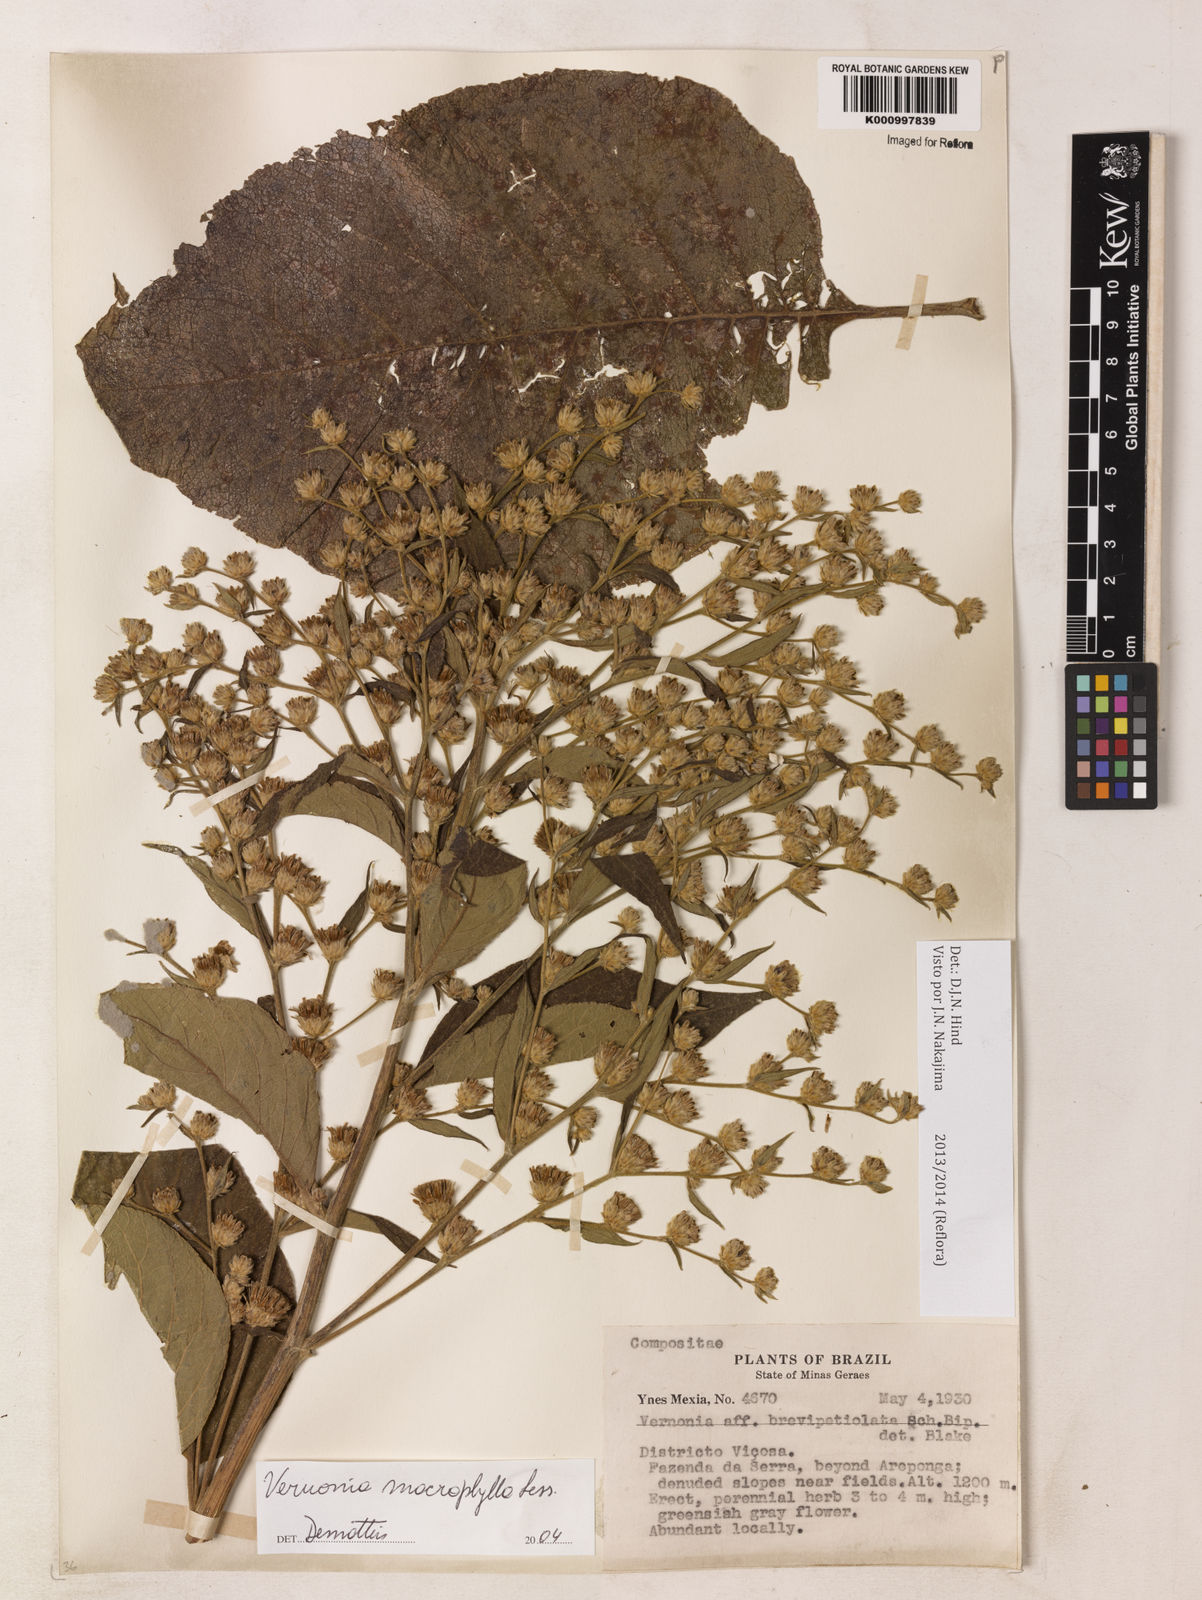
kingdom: Plantae
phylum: Tracheophyta
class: Magnoliopsida
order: Asterales
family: Asteraceae
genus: Lessingianthus
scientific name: Lessingianthus macrophyllus
